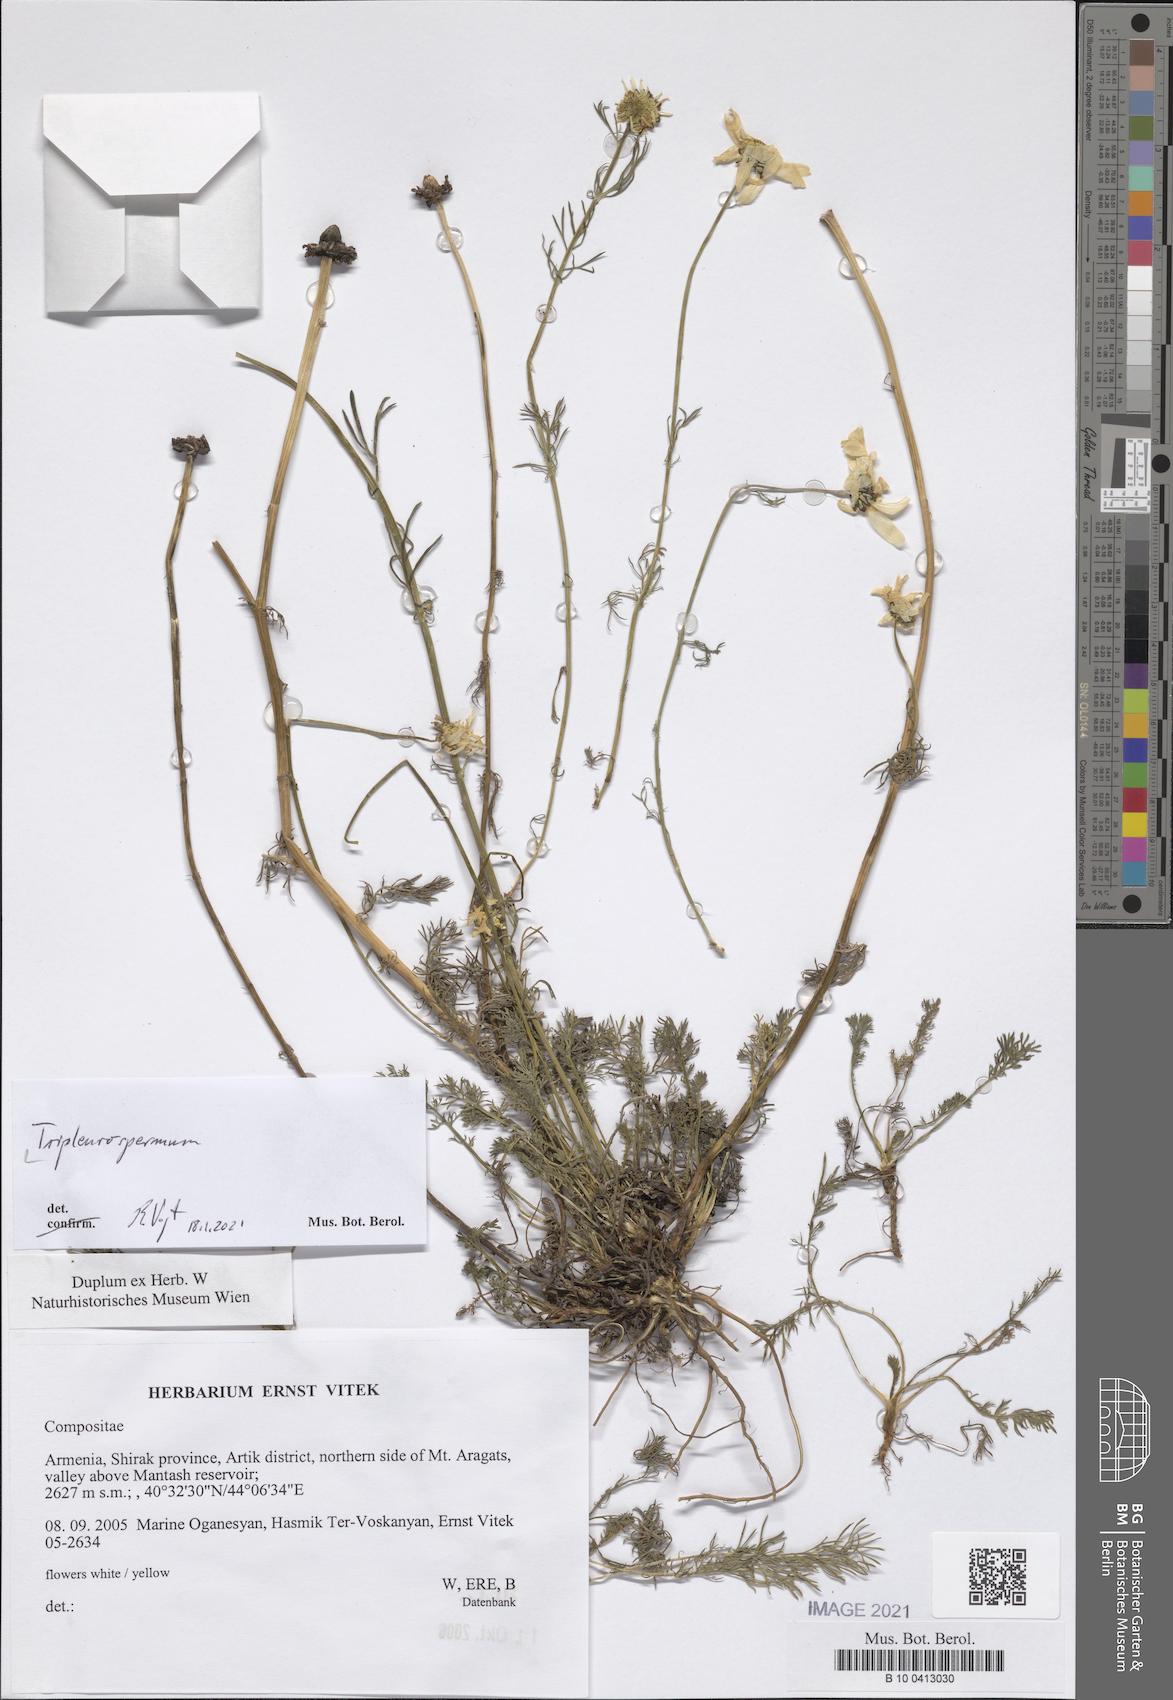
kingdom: Plantae
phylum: Tracheophyta
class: Magnoliopsida
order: Asterales
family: Asteraceae
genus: Tripleurospermum
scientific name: Tripleurospermum
